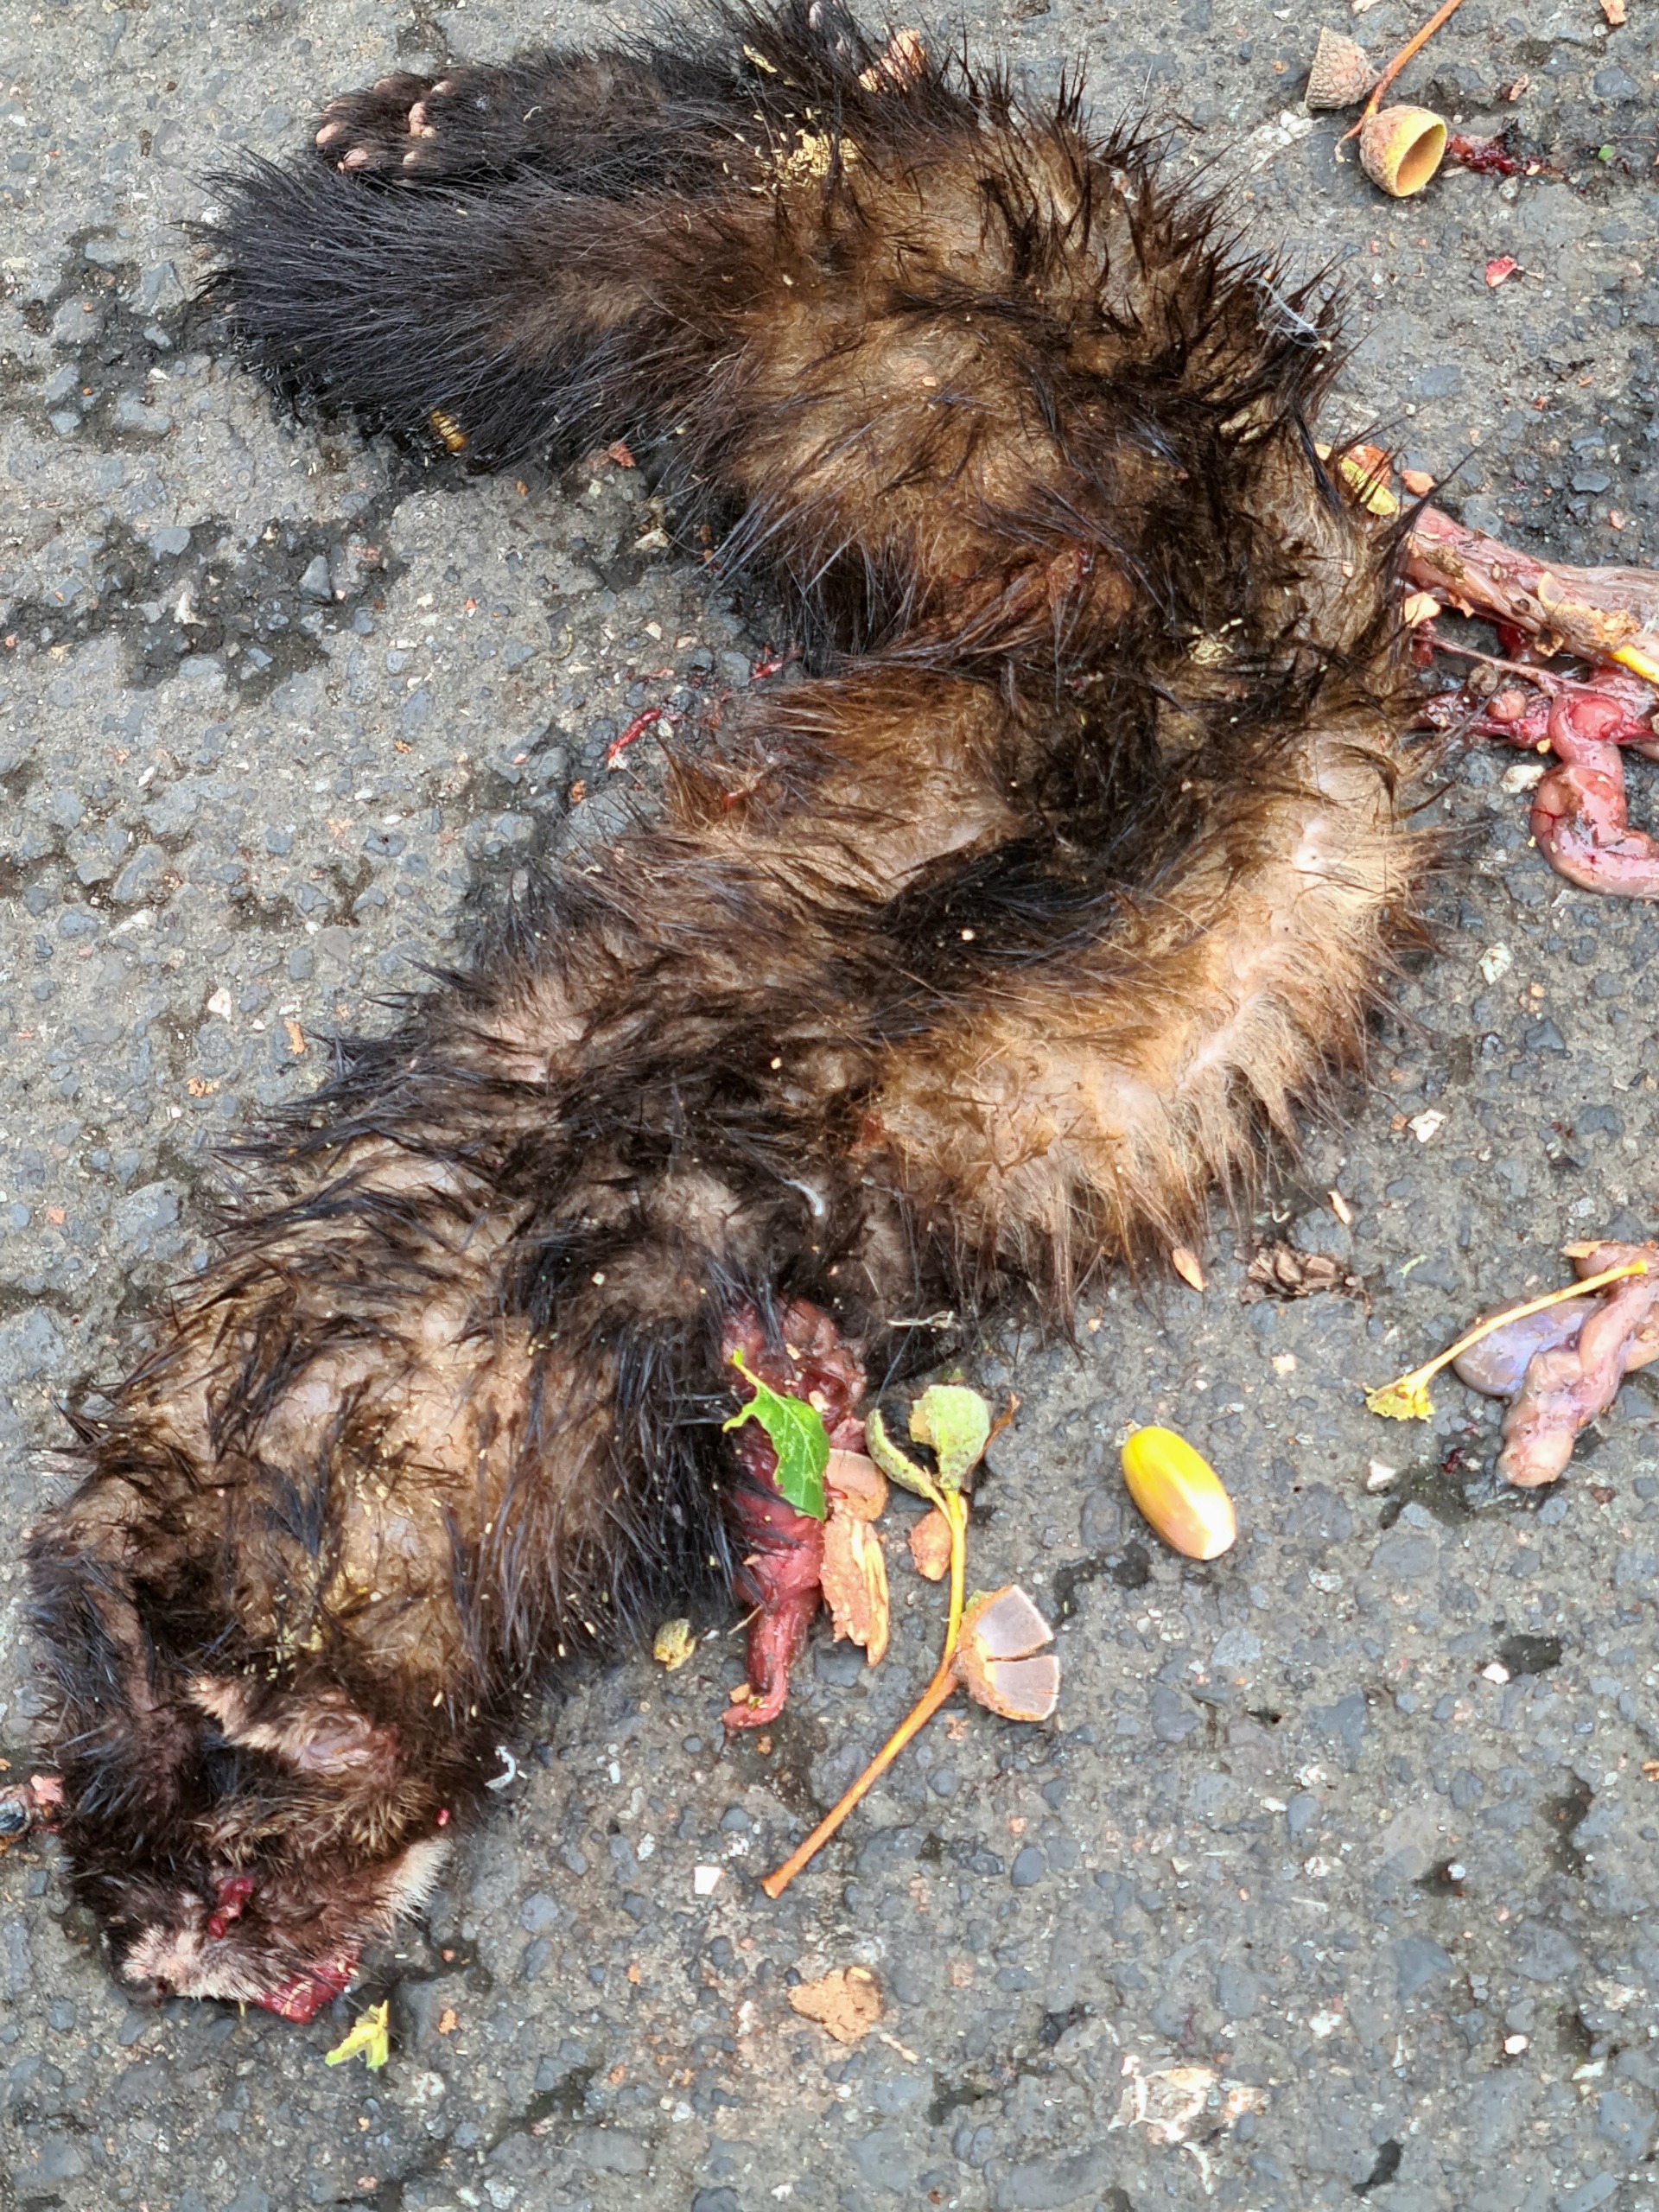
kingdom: Animalia
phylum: Chordata
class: Mammalia
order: Carnivora
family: Mustelidae
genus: Mustela
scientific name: Mustela putorius
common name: Ilder
